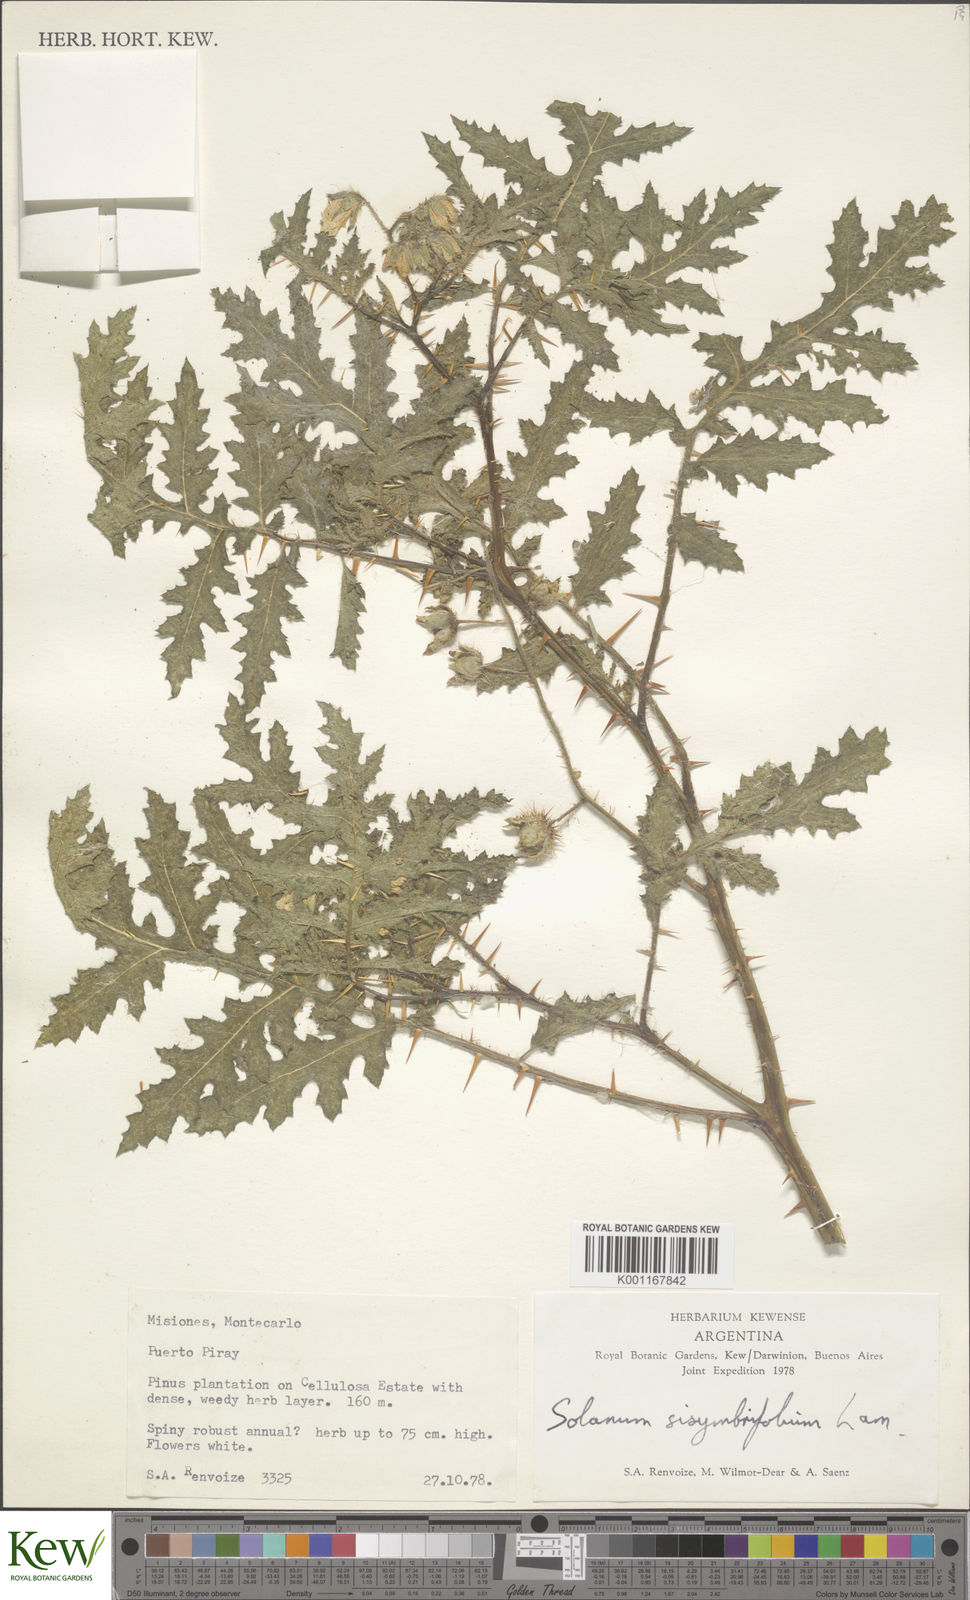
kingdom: Plantae
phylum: Tracheophyta
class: Magnoliopsida
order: Solanales
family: Solanaceae
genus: Solanum
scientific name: Solanum sisymbriifolium
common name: Red buffalo-bur
